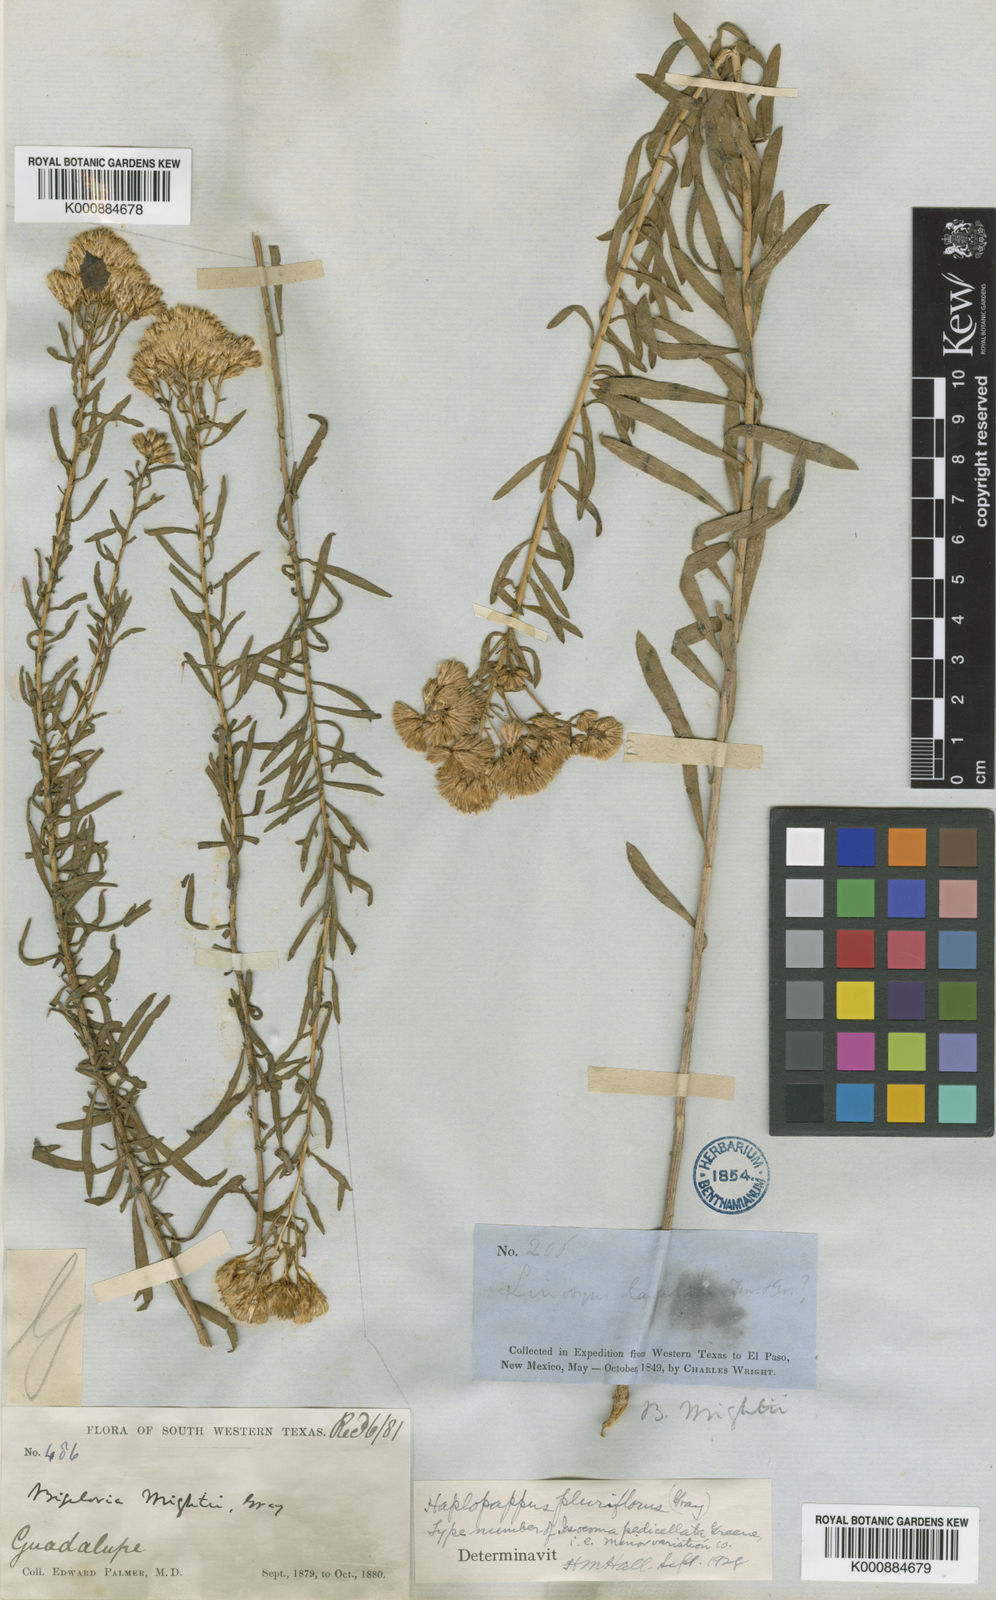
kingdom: Plantae
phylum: Tracheophyta
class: Magnoliopsida
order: Asterales
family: Asteraceae
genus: Isocoma
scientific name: Isocoma pluriflora
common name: Southern jimmyweed
